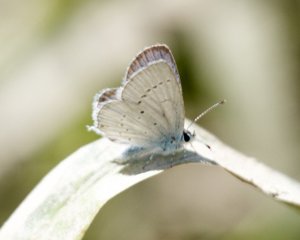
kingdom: Animalia
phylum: Arthropoda
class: Insecta
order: Lepidoptera
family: Lycaenidae
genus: Elkalyce
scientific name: Elkalyce amyntula
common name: Western Tailed-Blue
